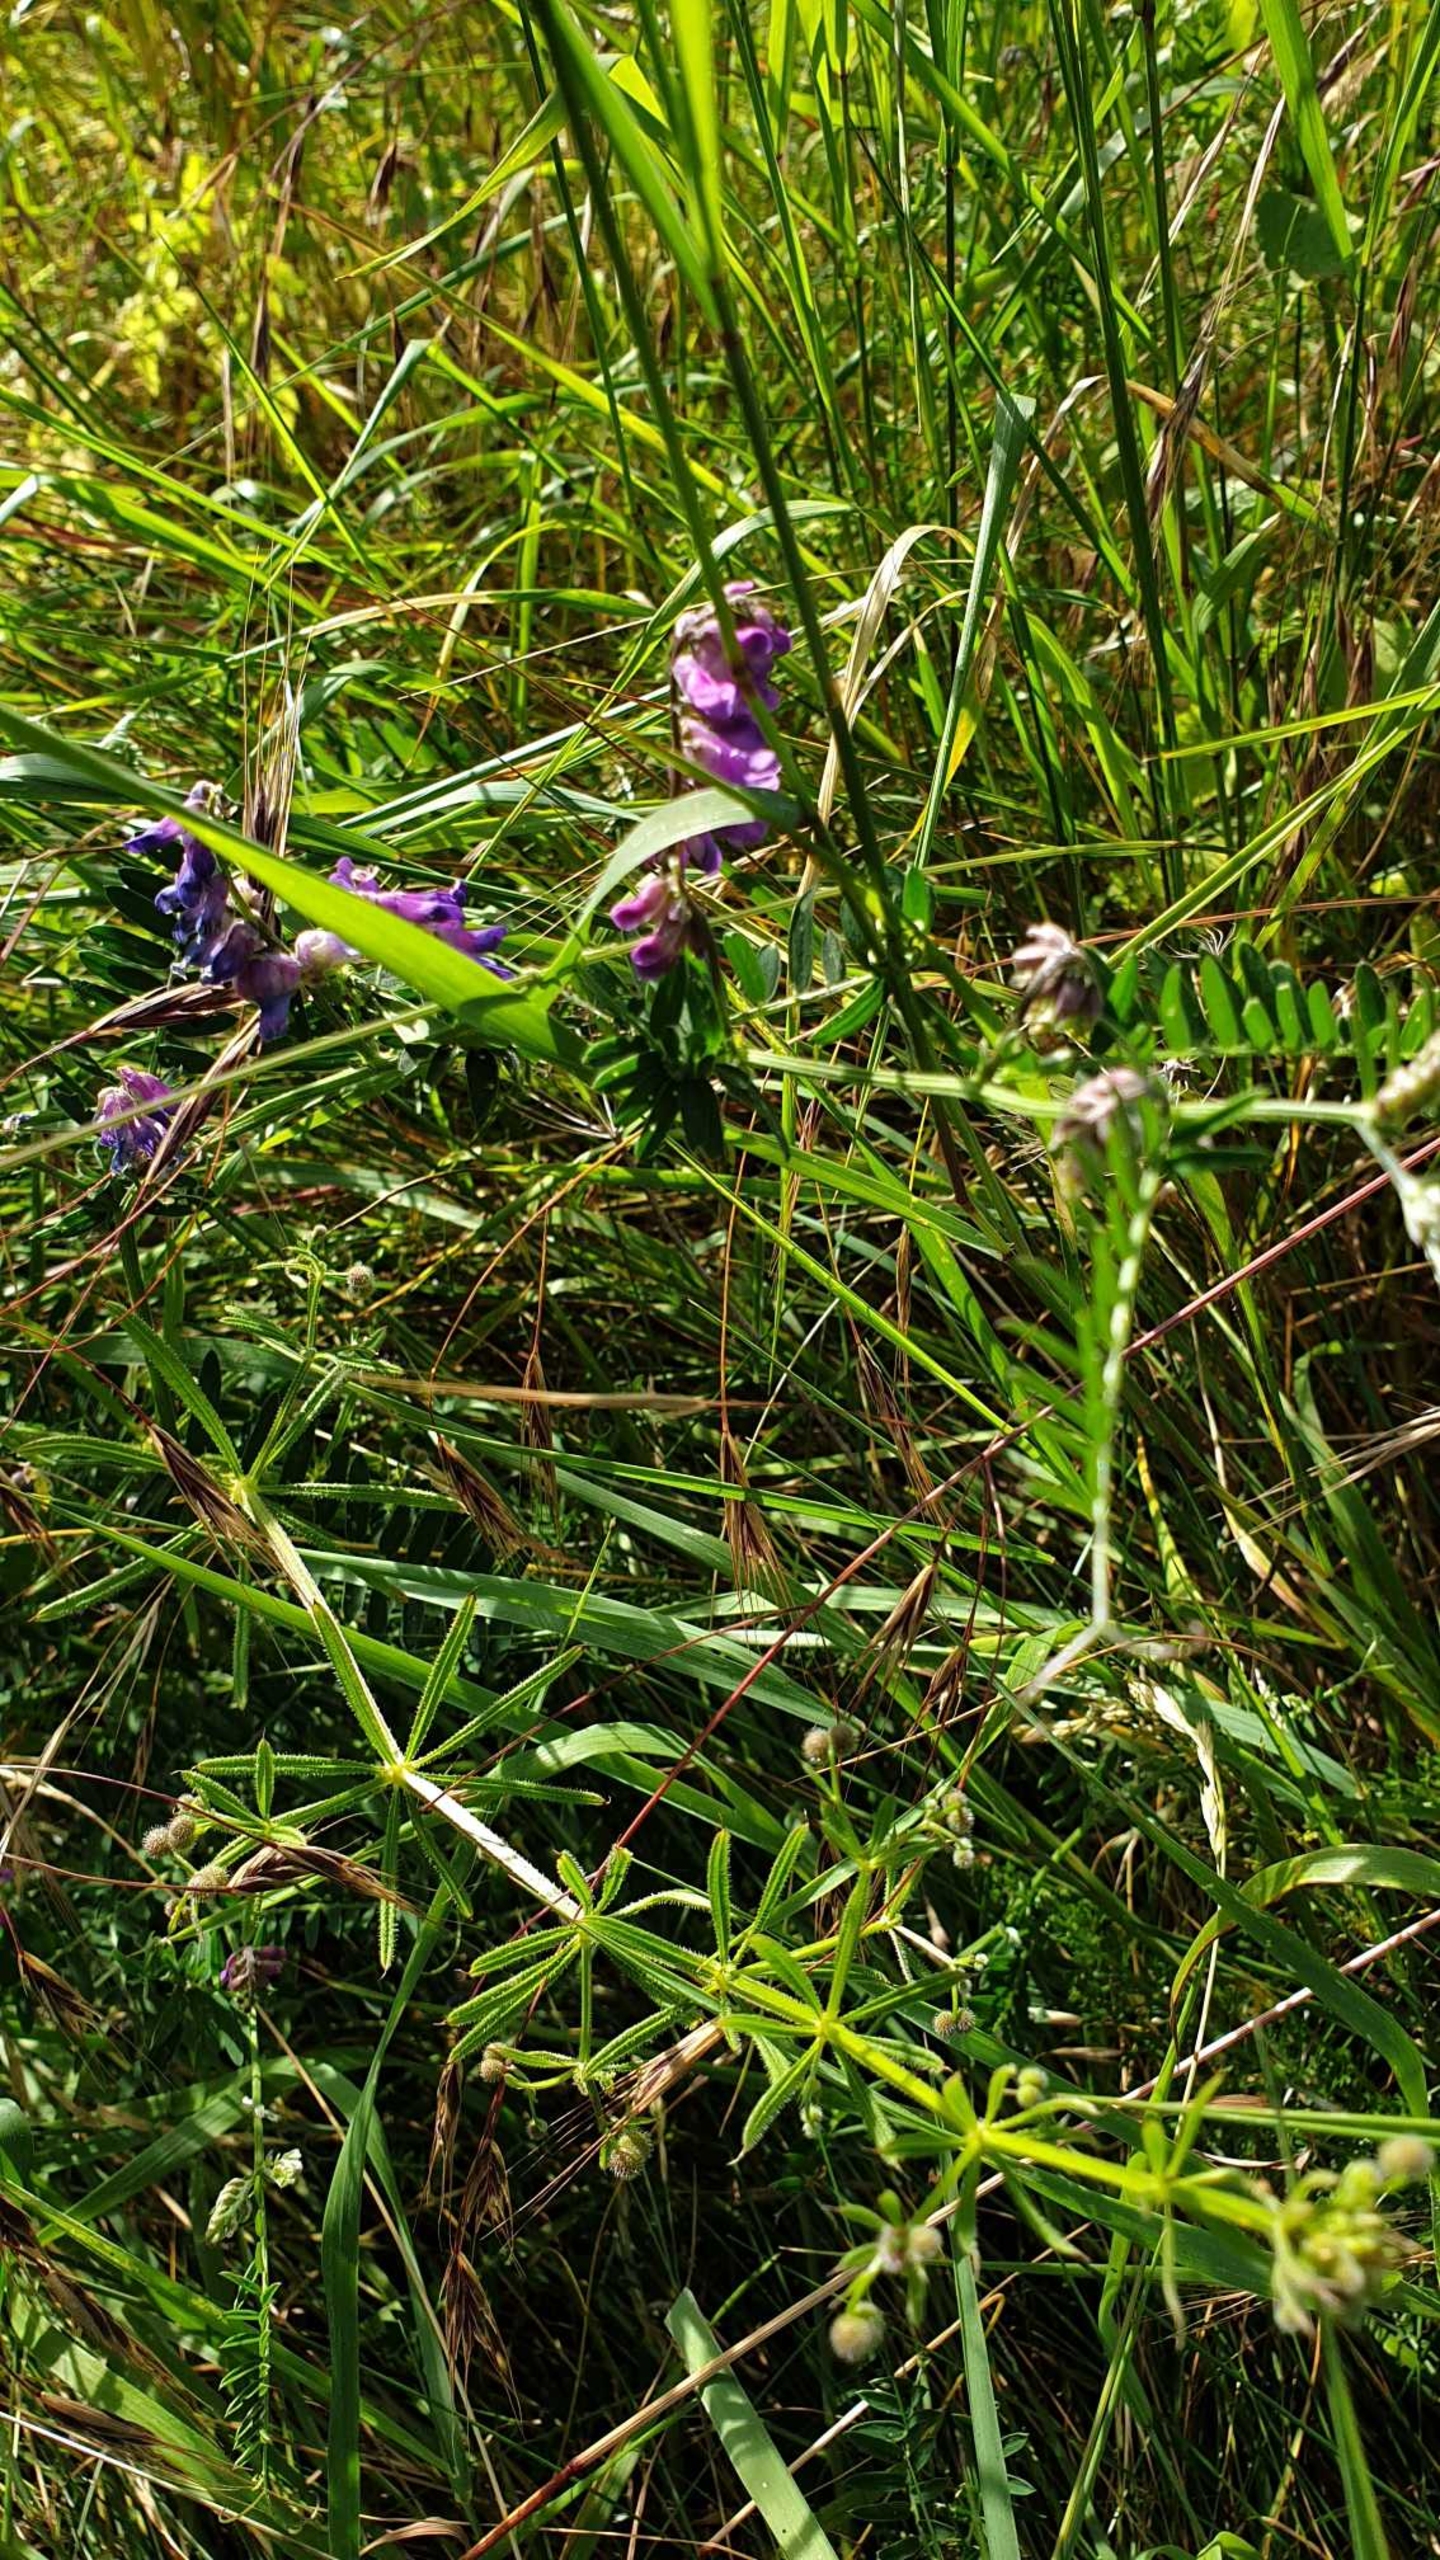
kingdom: Plantae
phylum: Tracheophyta
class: Magnoliopsida
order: Fabales
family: Fabaceae
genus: Vicia
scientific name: Vicia cracca
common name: Muse-vikke
